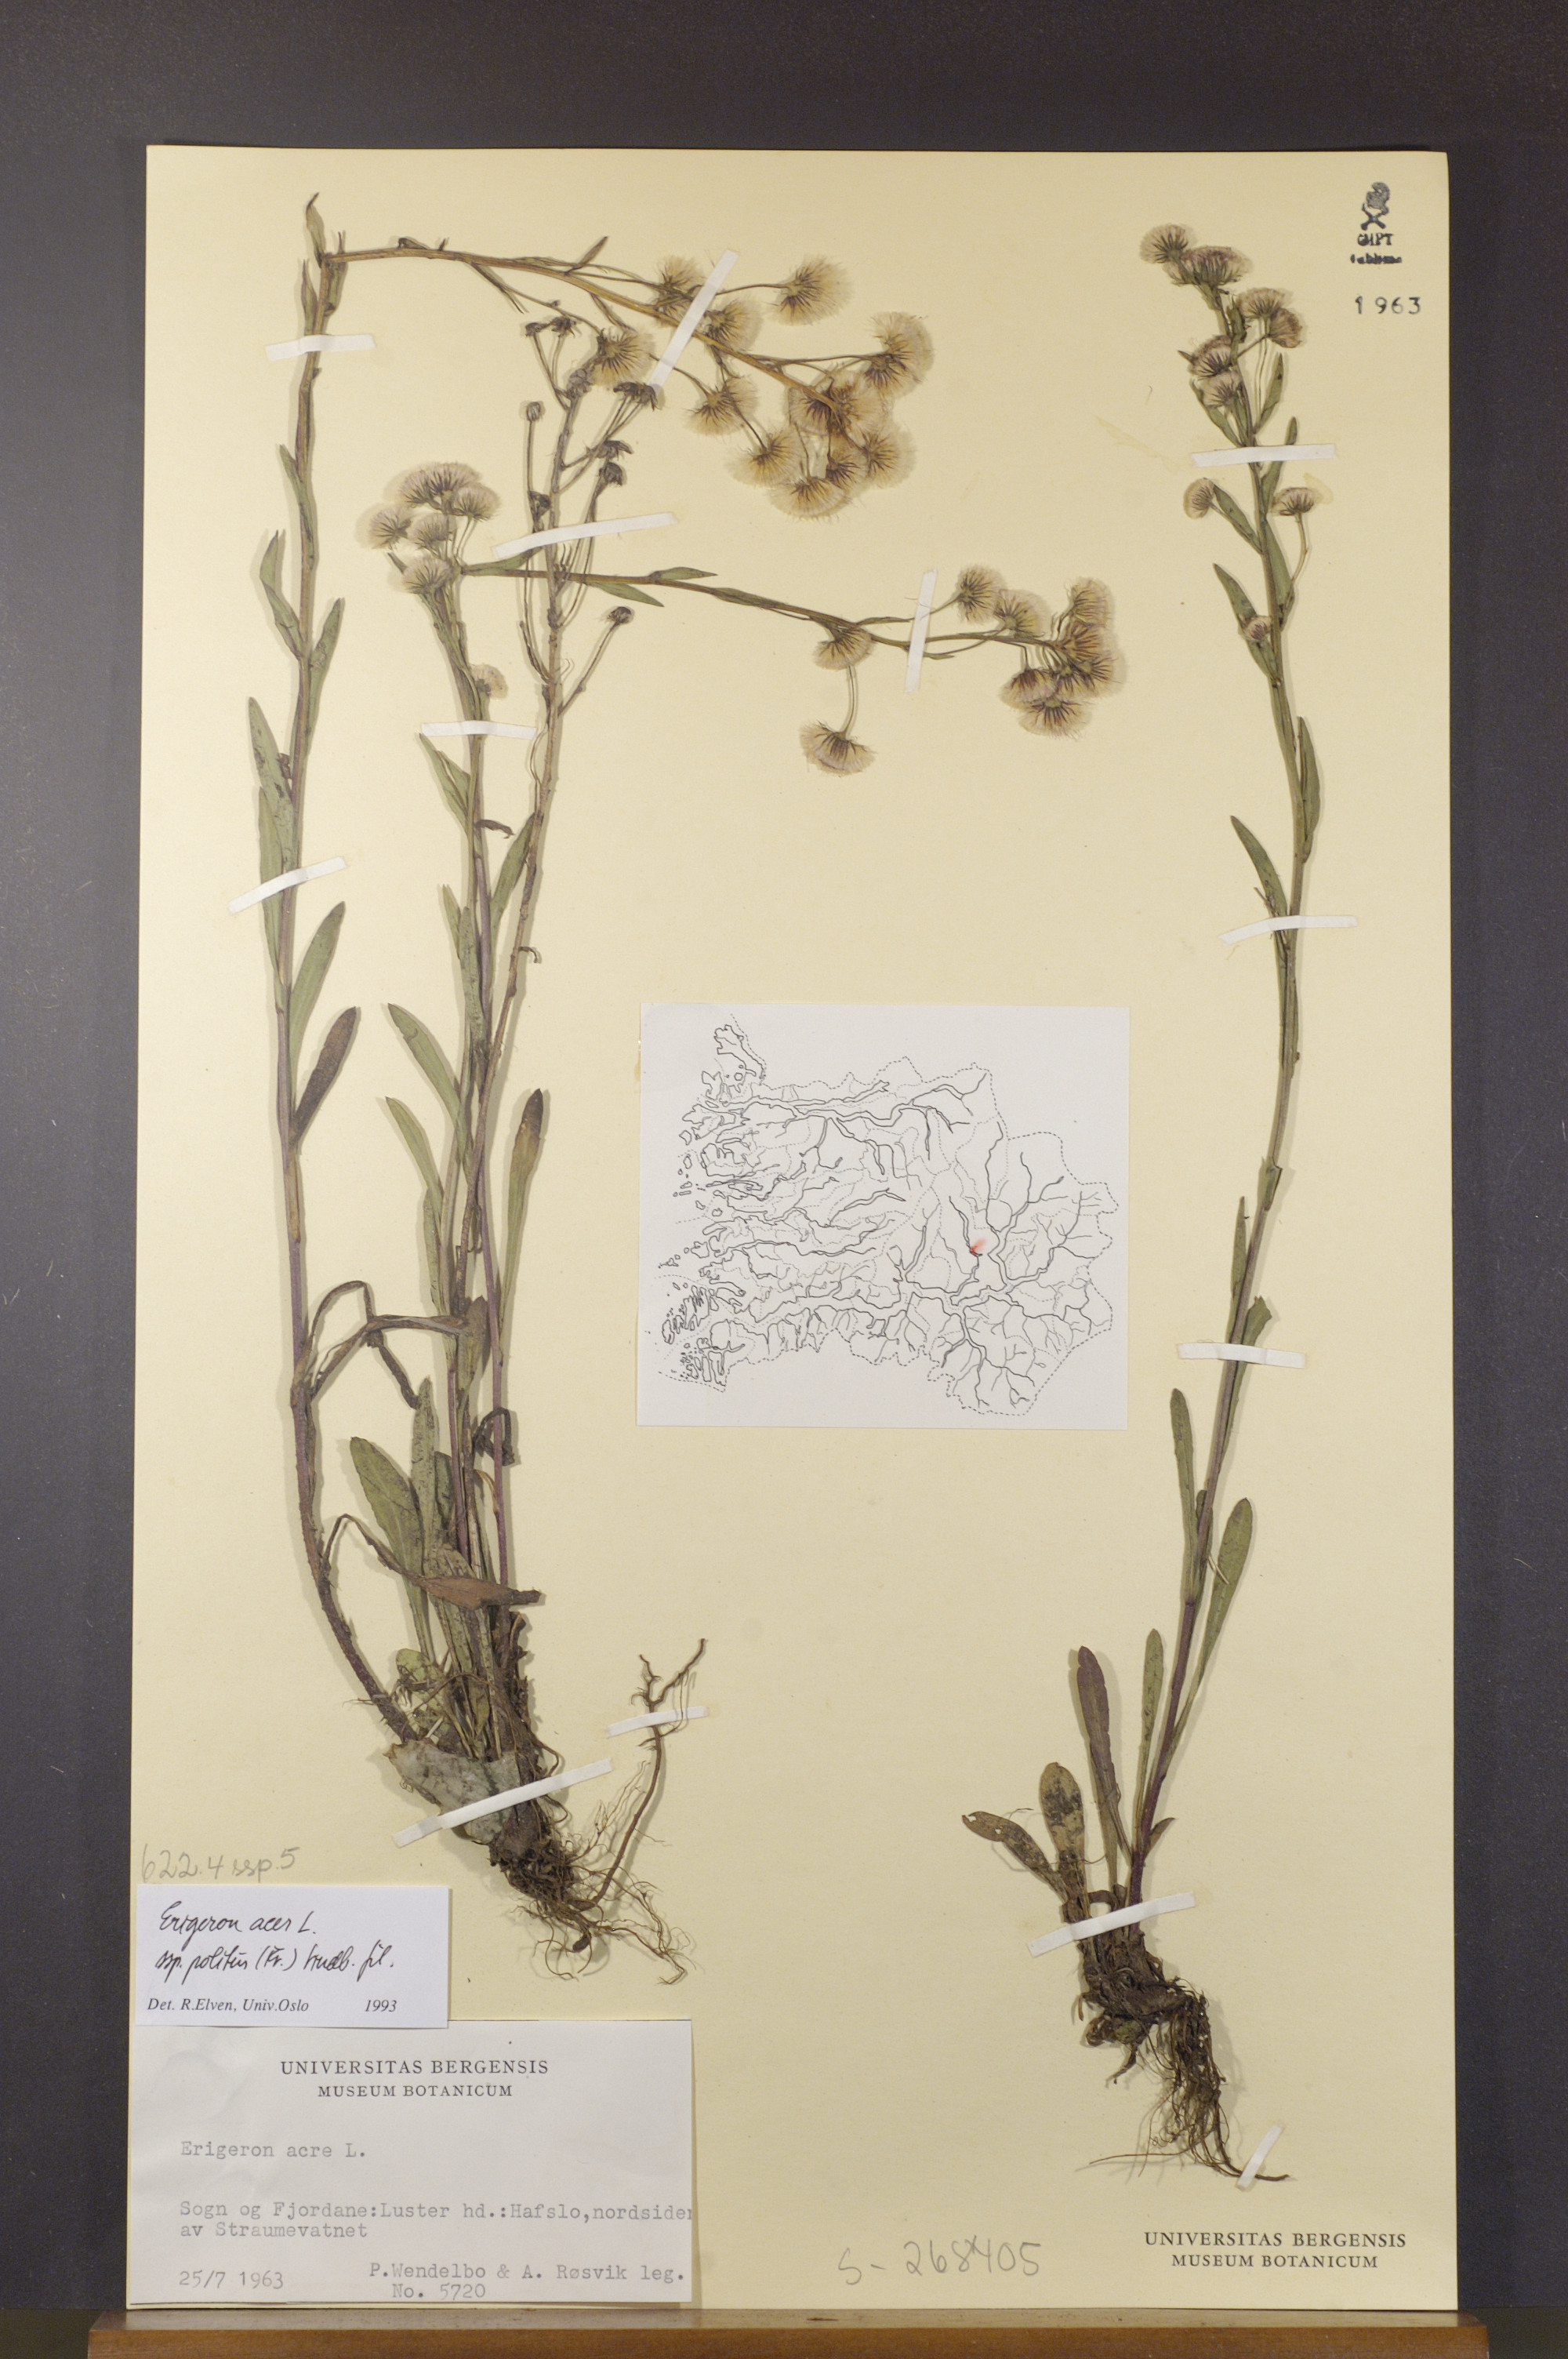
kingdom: Plantae
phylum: Tracheophyta
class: Magnoliopsida
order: Asterales
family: Asteraceae
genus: Erigeron
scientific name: Erigeron politus
